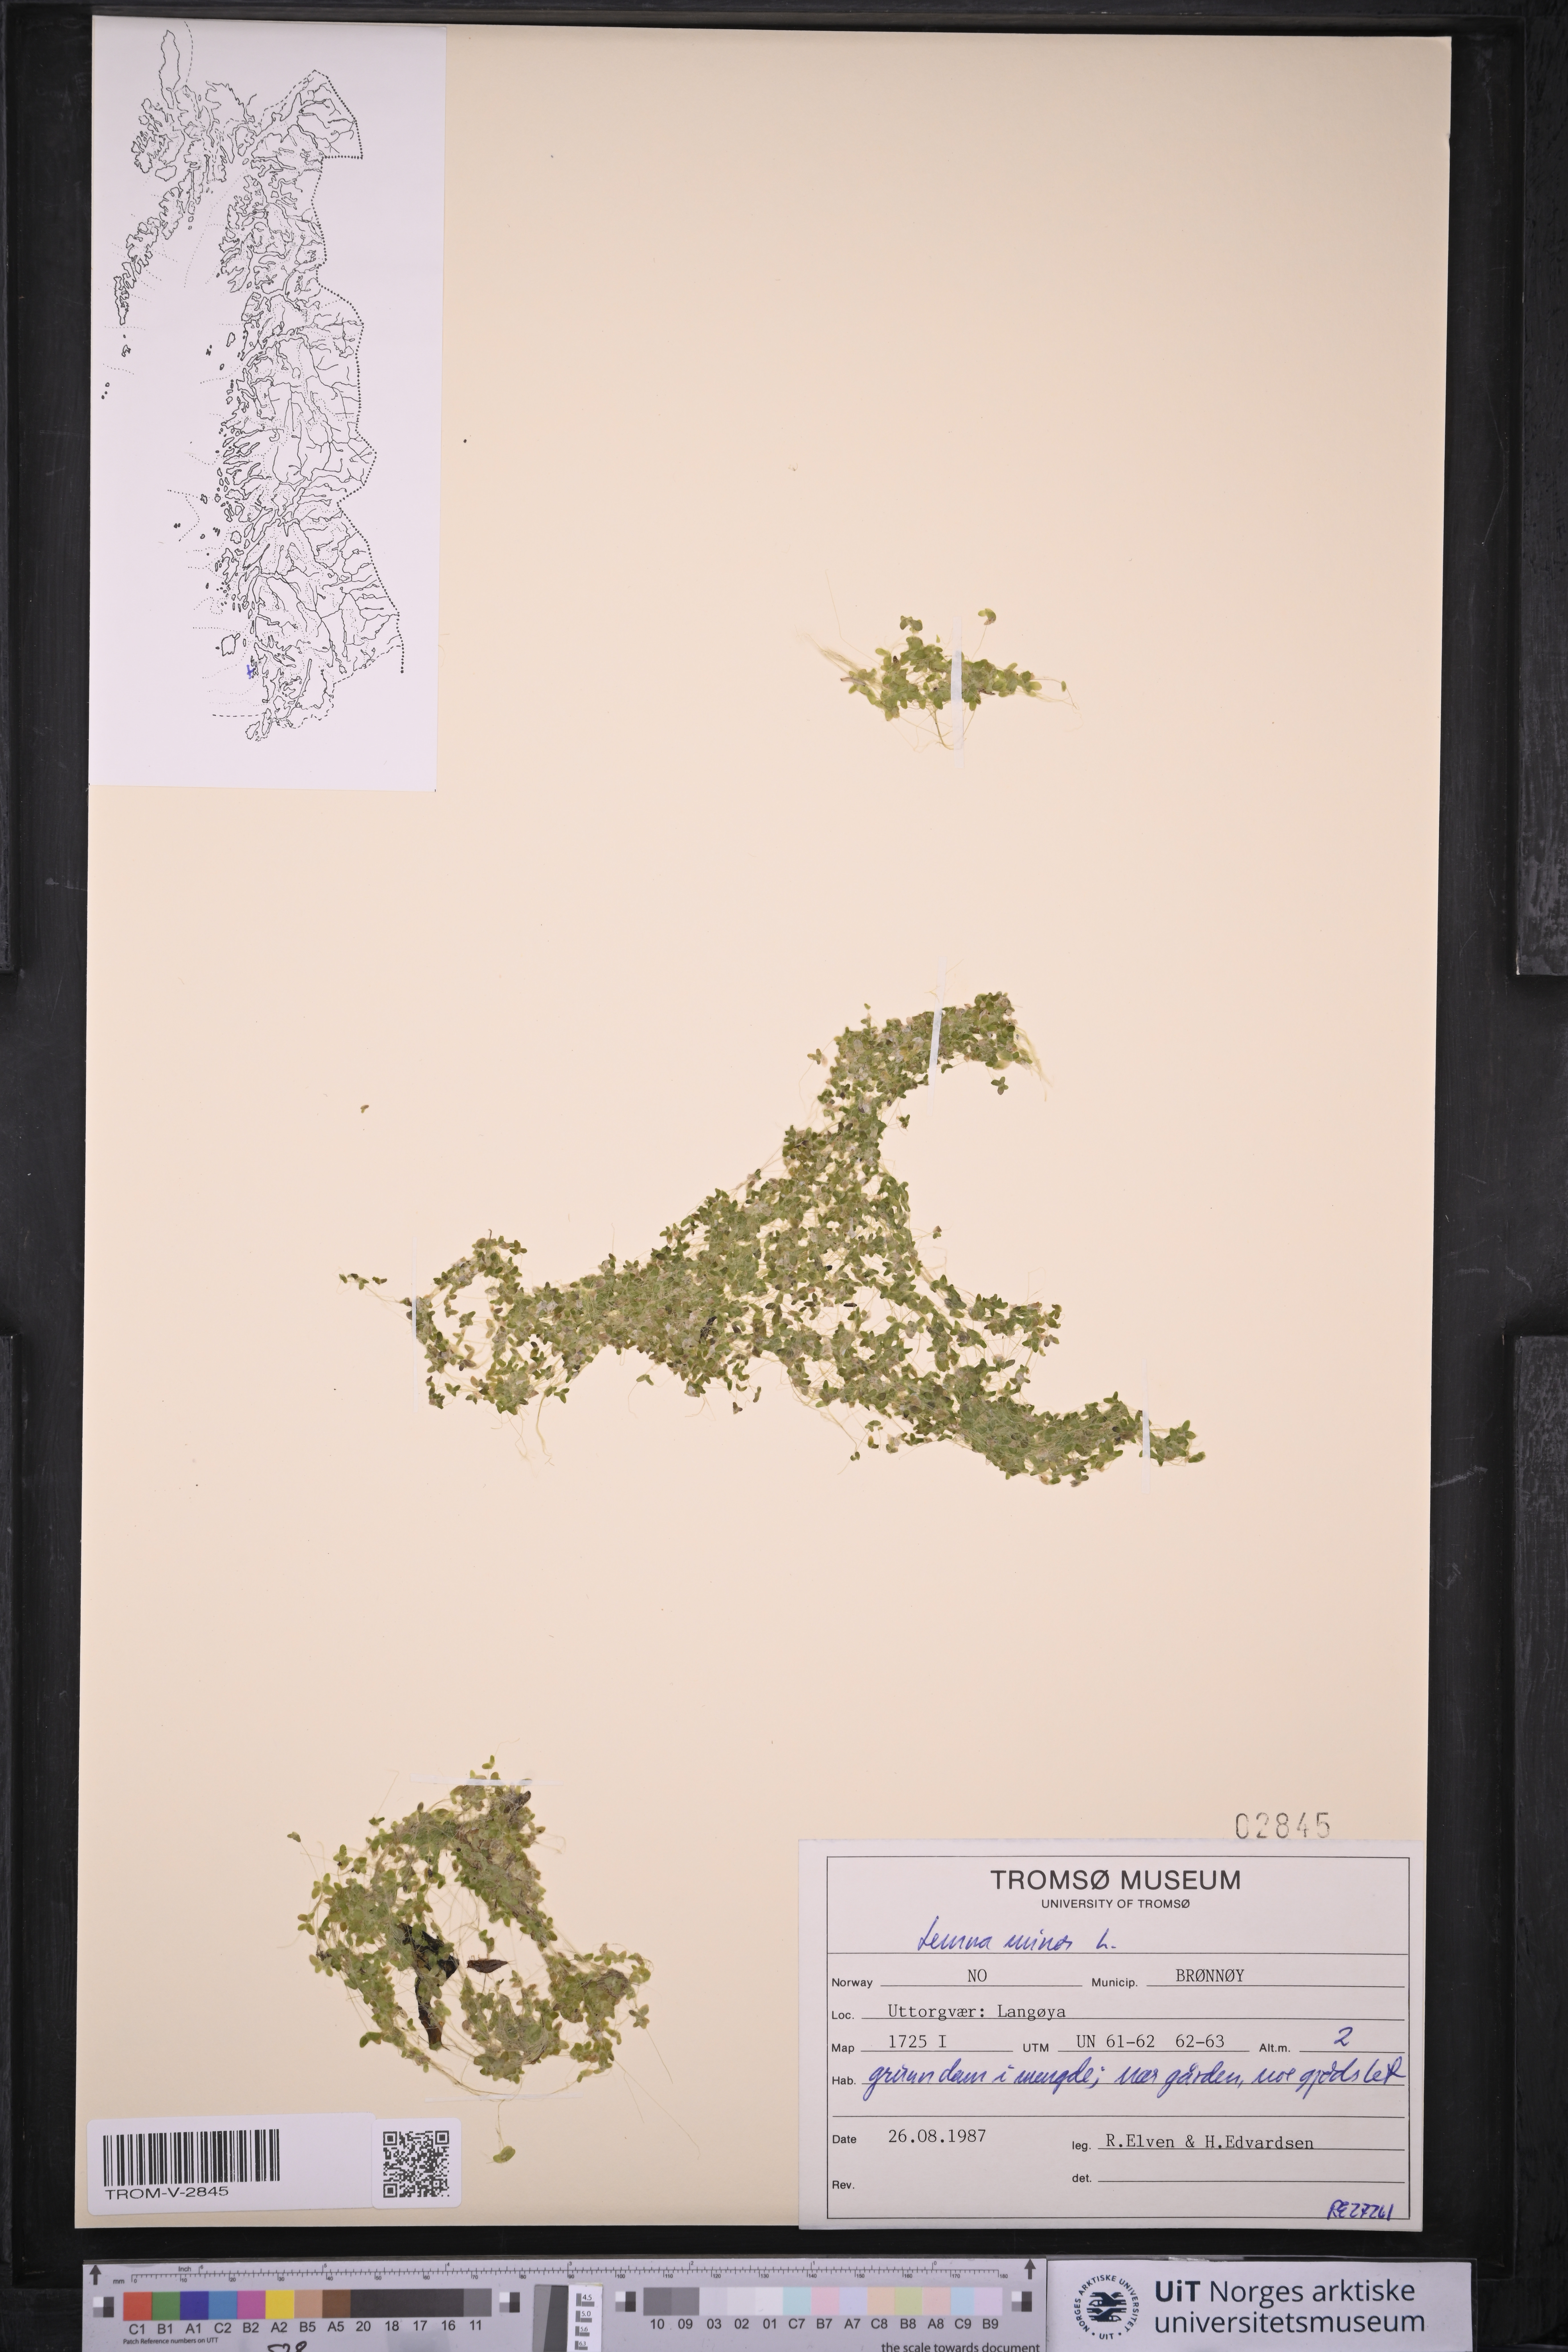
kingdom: Plantae
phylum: Tracheophyta
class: Liliopsida
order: Alismatales
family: Araceae
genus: Lemna
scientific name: Lemna minor
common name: Common duckweed
